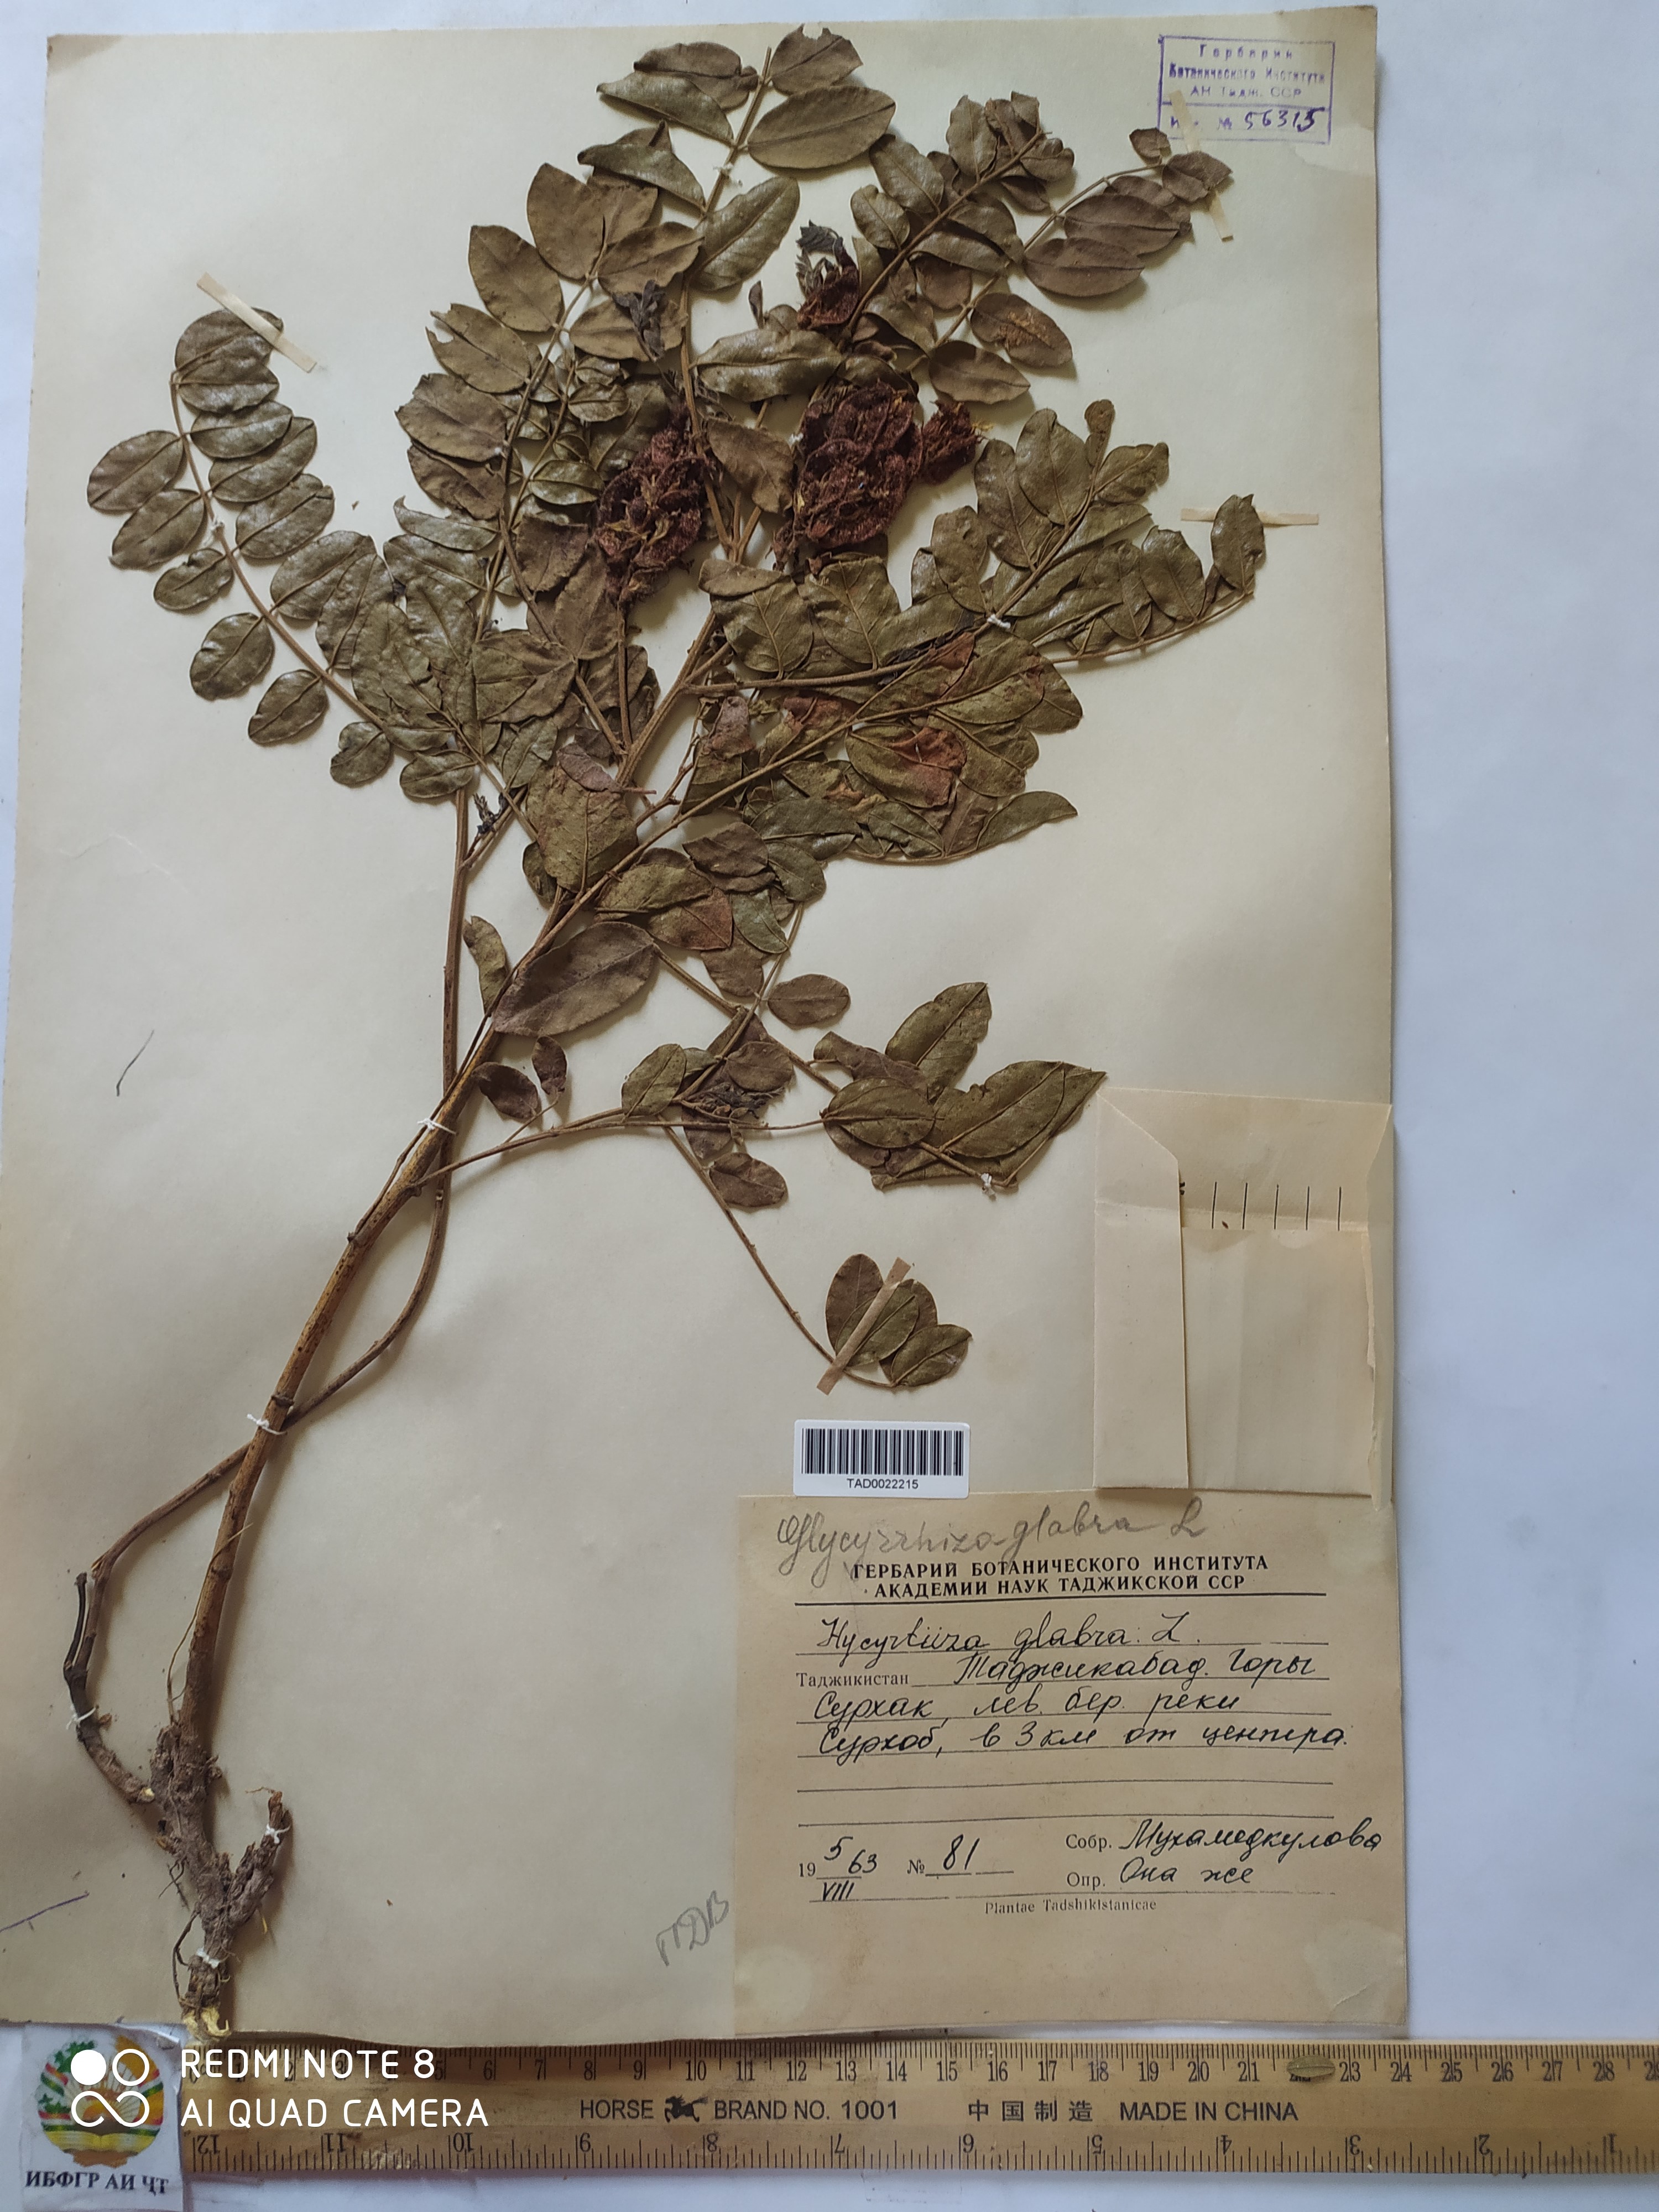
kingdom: Plantae
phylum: Tracheophyta
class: Magnoliopsida
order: Fabales
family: Fabaceae
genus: Glycyrrhiza
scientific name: Glycyrrhiza glabra
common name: Liquorice
